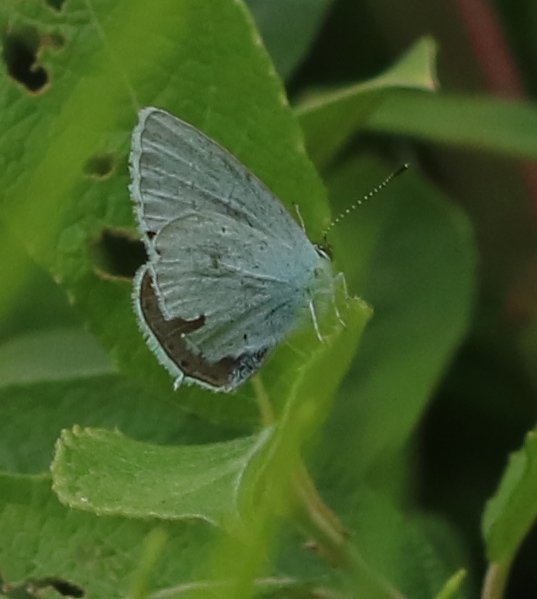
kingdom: Animalia
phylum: Arthropoda
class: Insecta
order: Lepidoptera
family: Lycaenidae
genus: Elkalyce
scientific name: Elkalyce amyntula
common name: Western Tailed-Blue
